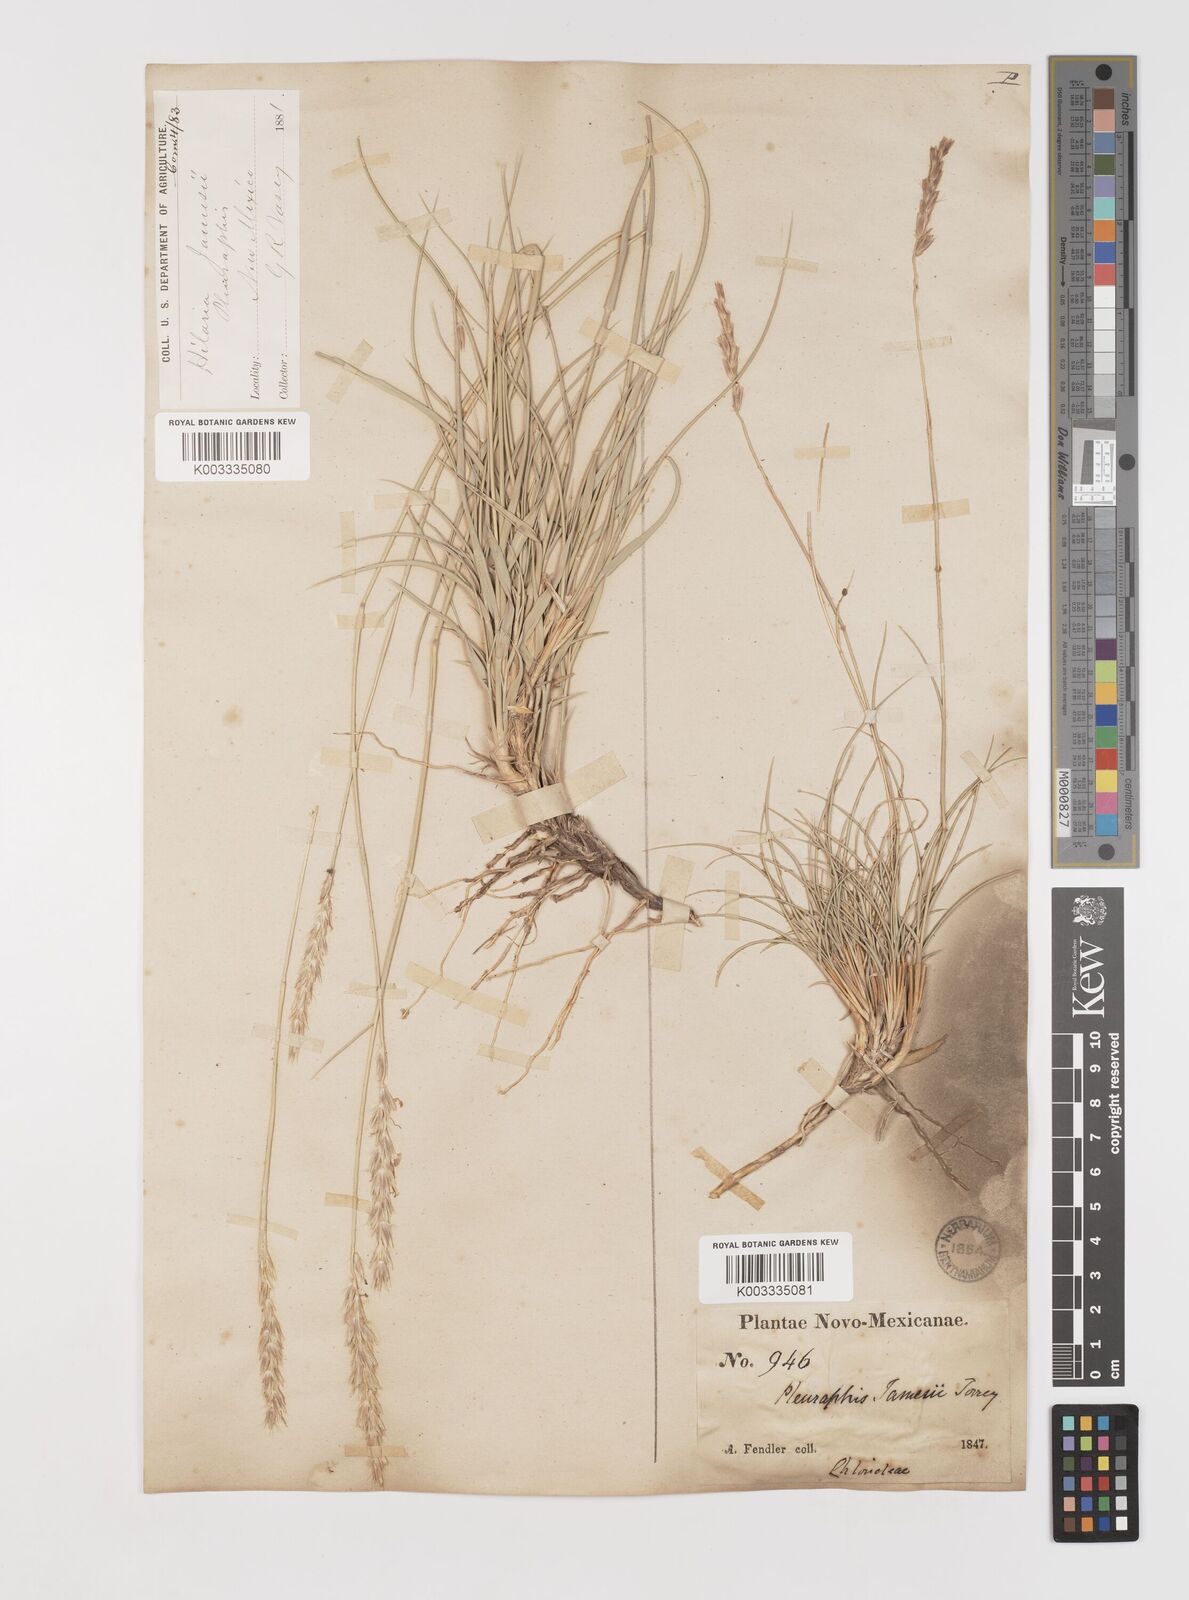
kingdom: Plantae
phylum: Tracheophyta
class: Liliopsida
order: Poales
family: Poaceae
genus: Hilaria
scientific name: Hilaria jamesii
